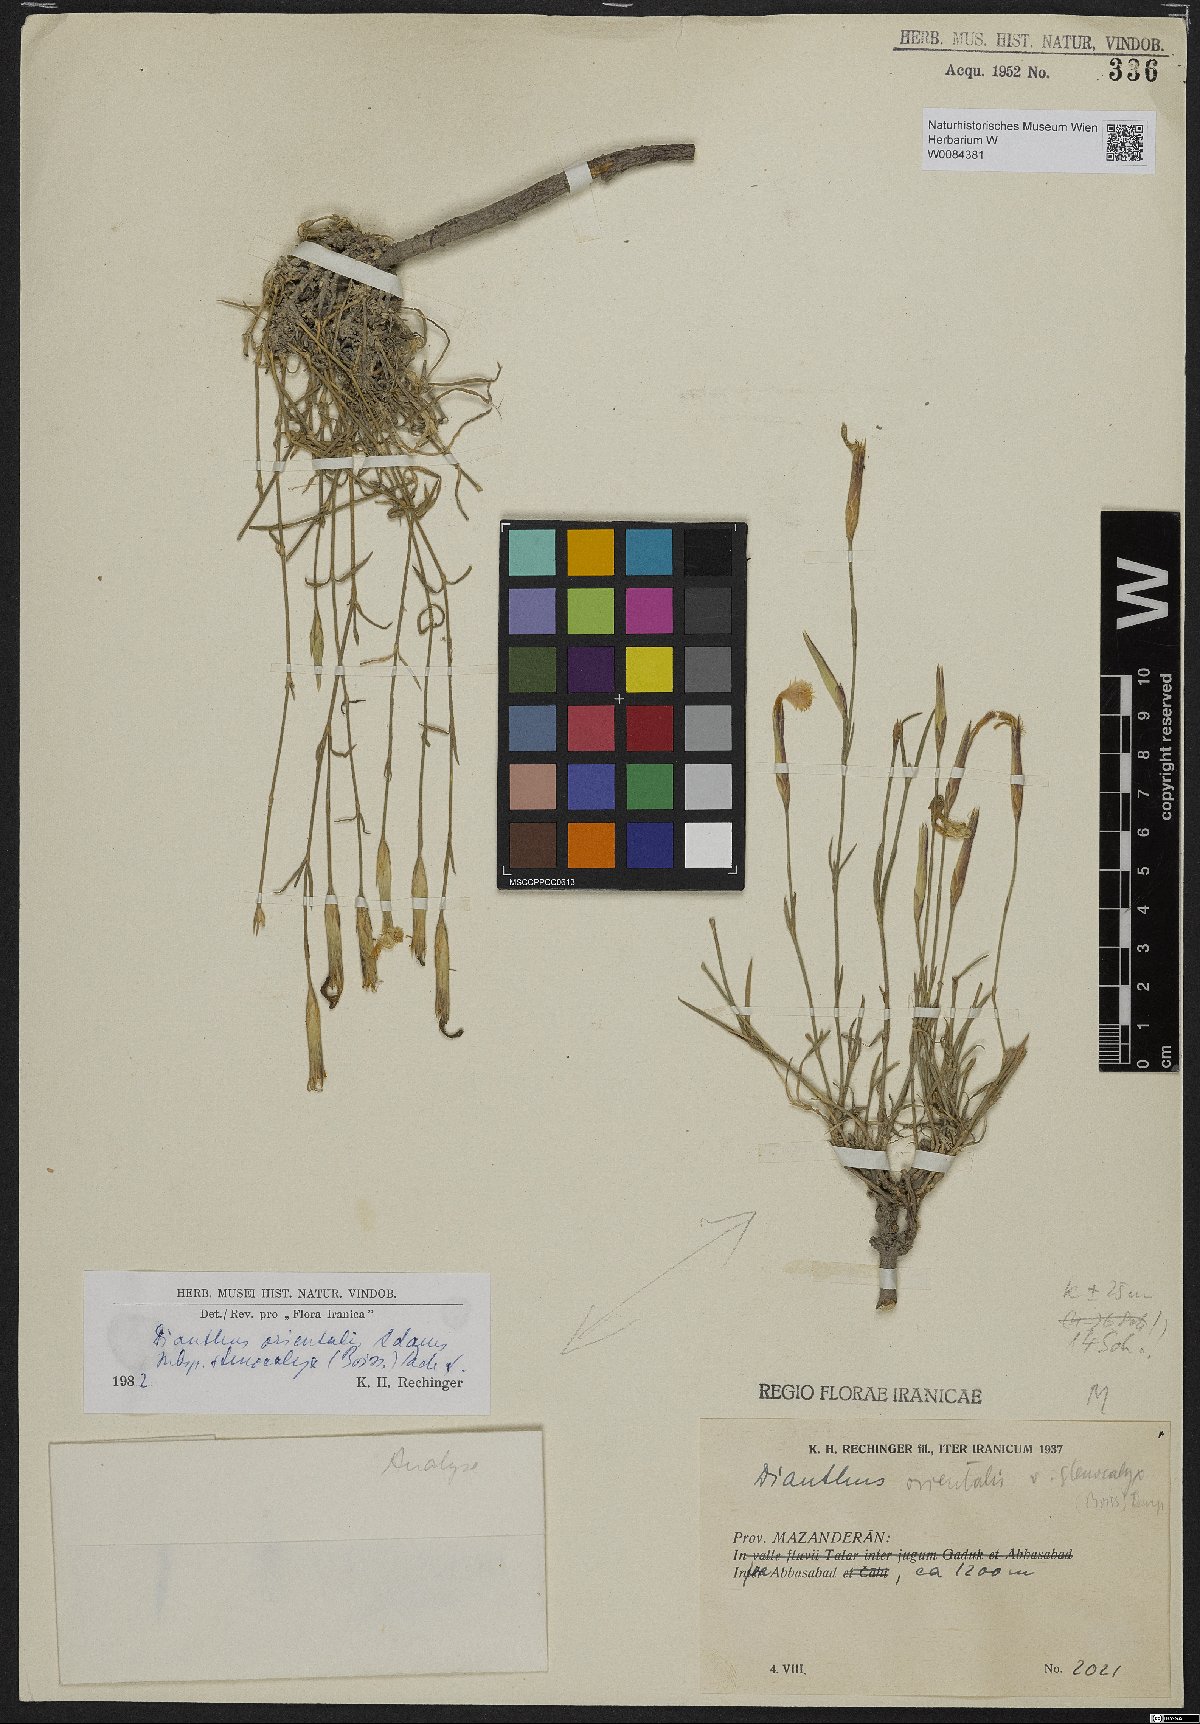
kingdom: Plantae
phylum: Tracheophyta
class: Magnoliopsida
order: Caryophyllales
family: Caryophyllaceae
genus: Dianthus
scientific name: Dianthus orientalis
